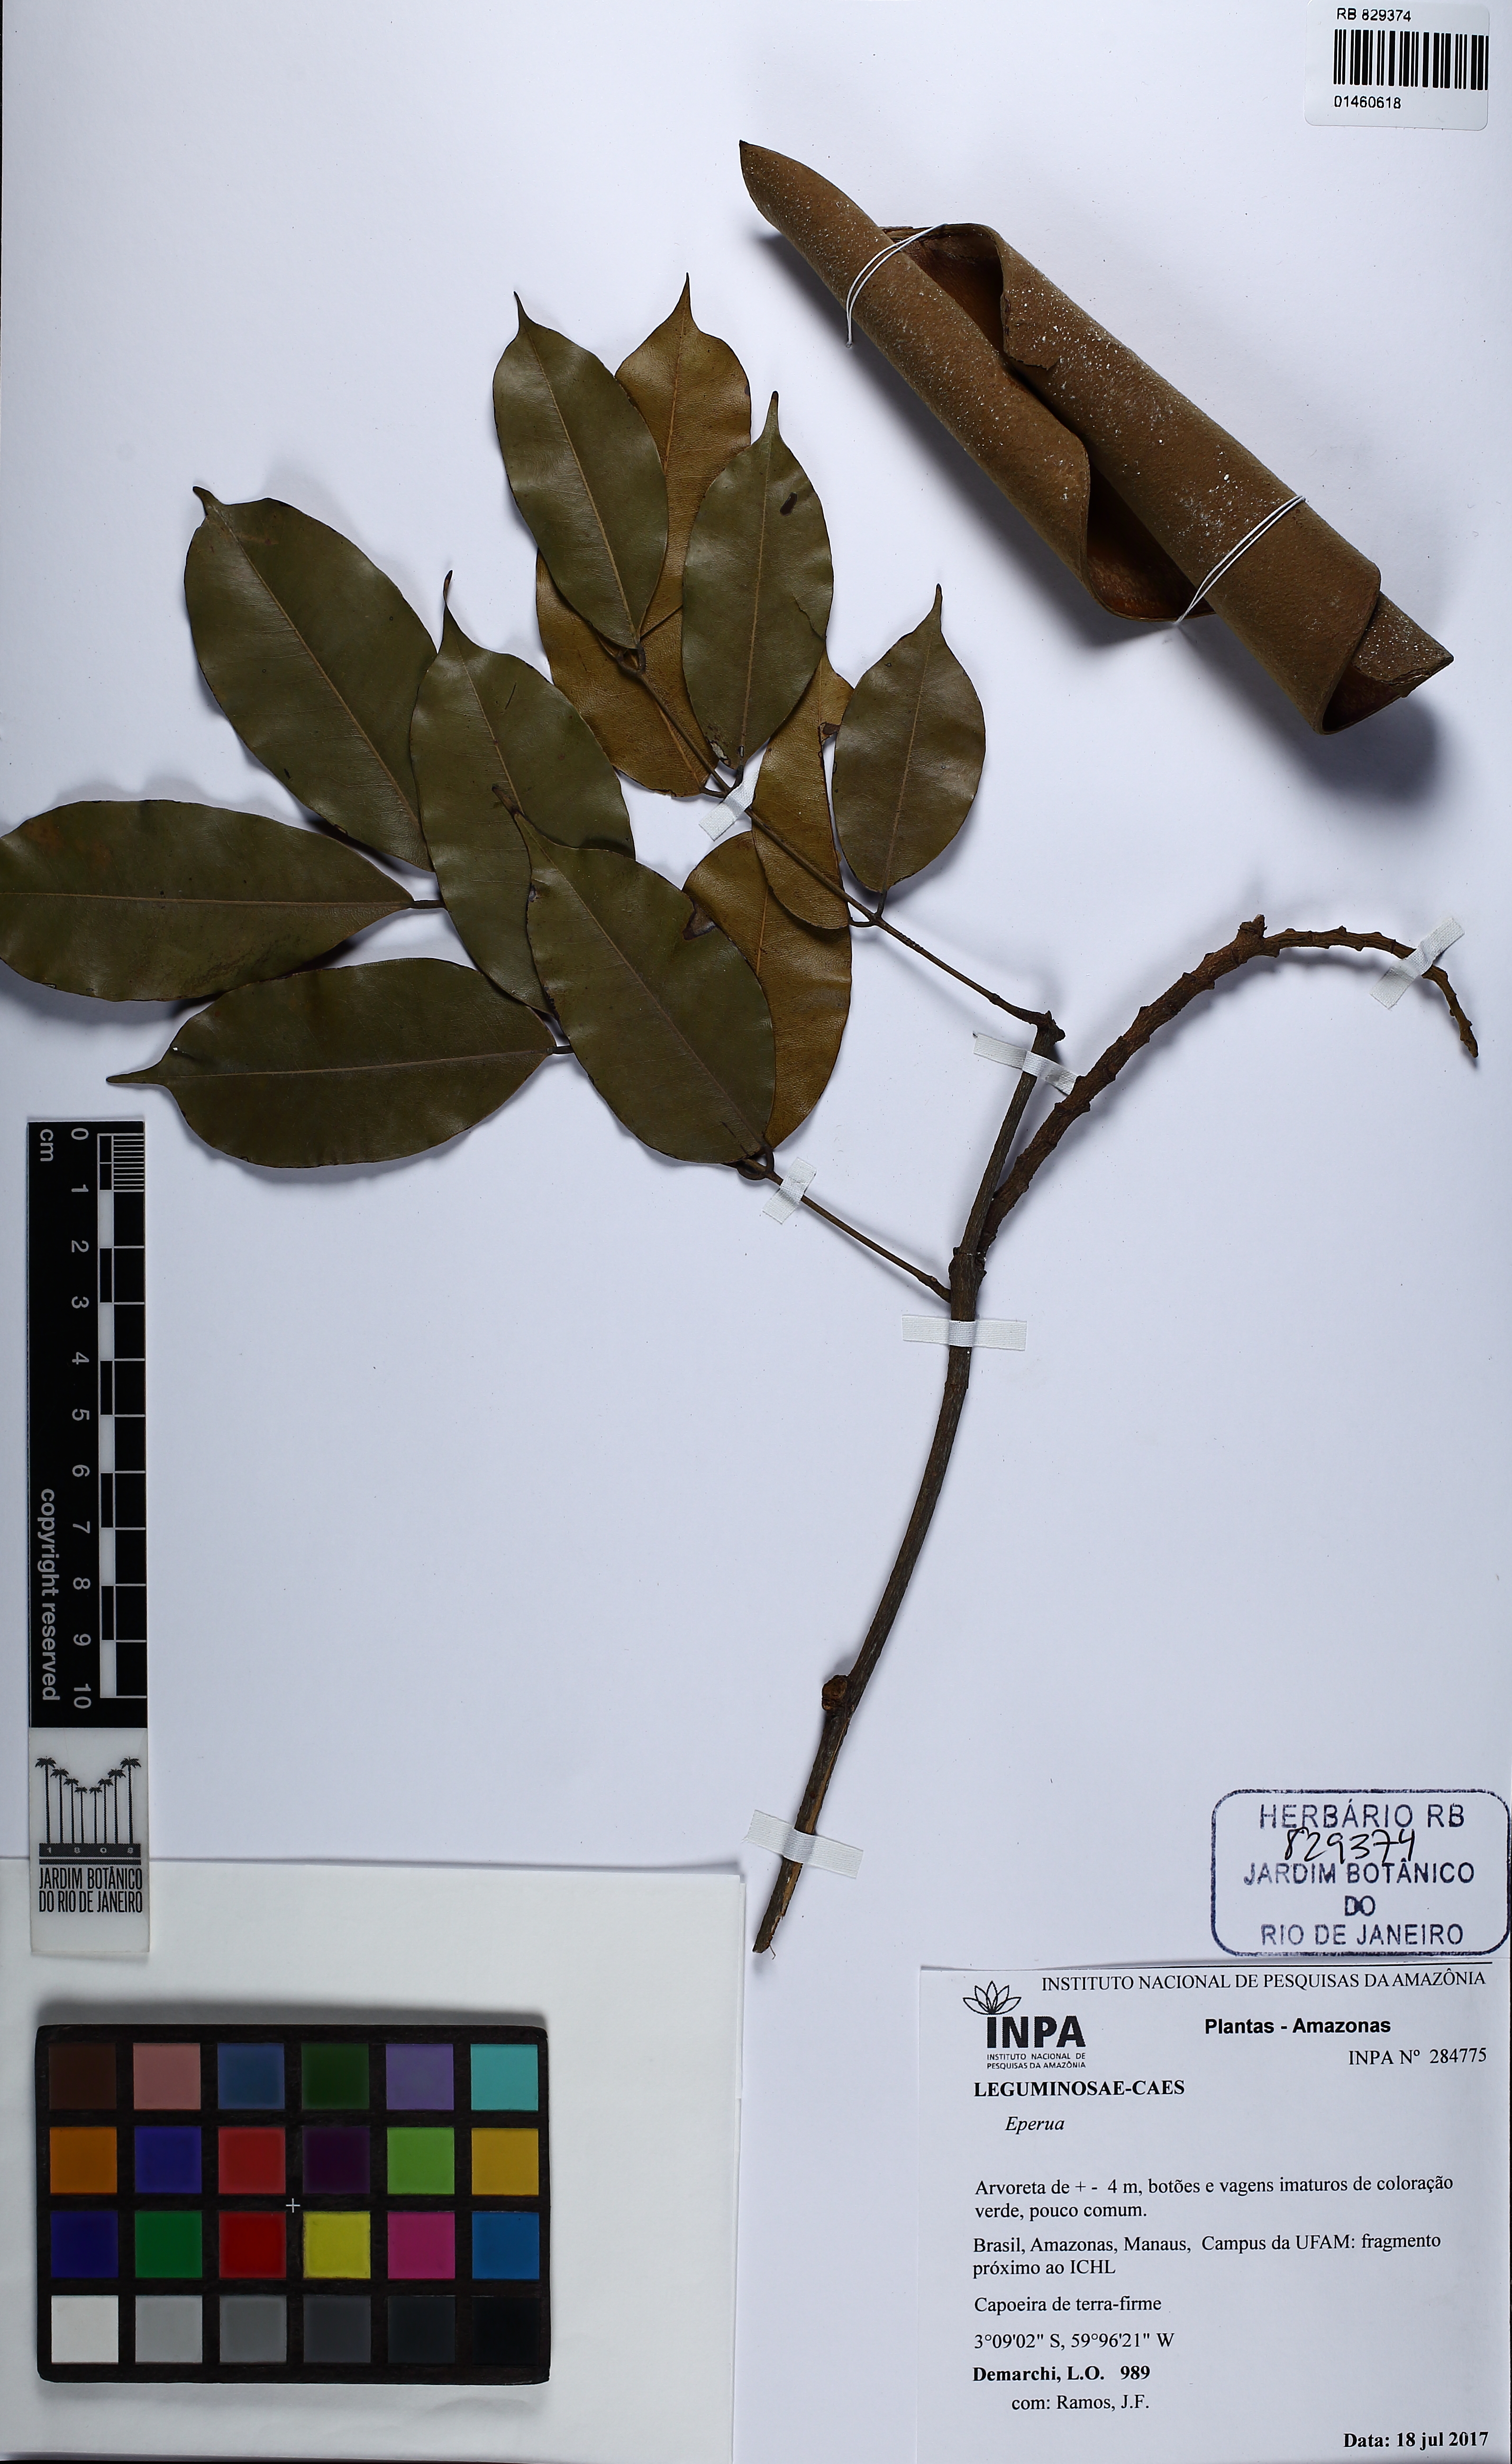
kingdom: Plantae
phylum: Tracheophyta
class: Magnoliopsida
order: Fabales
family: Fabaceae
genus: Eperua
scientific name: Eperua duckeana
